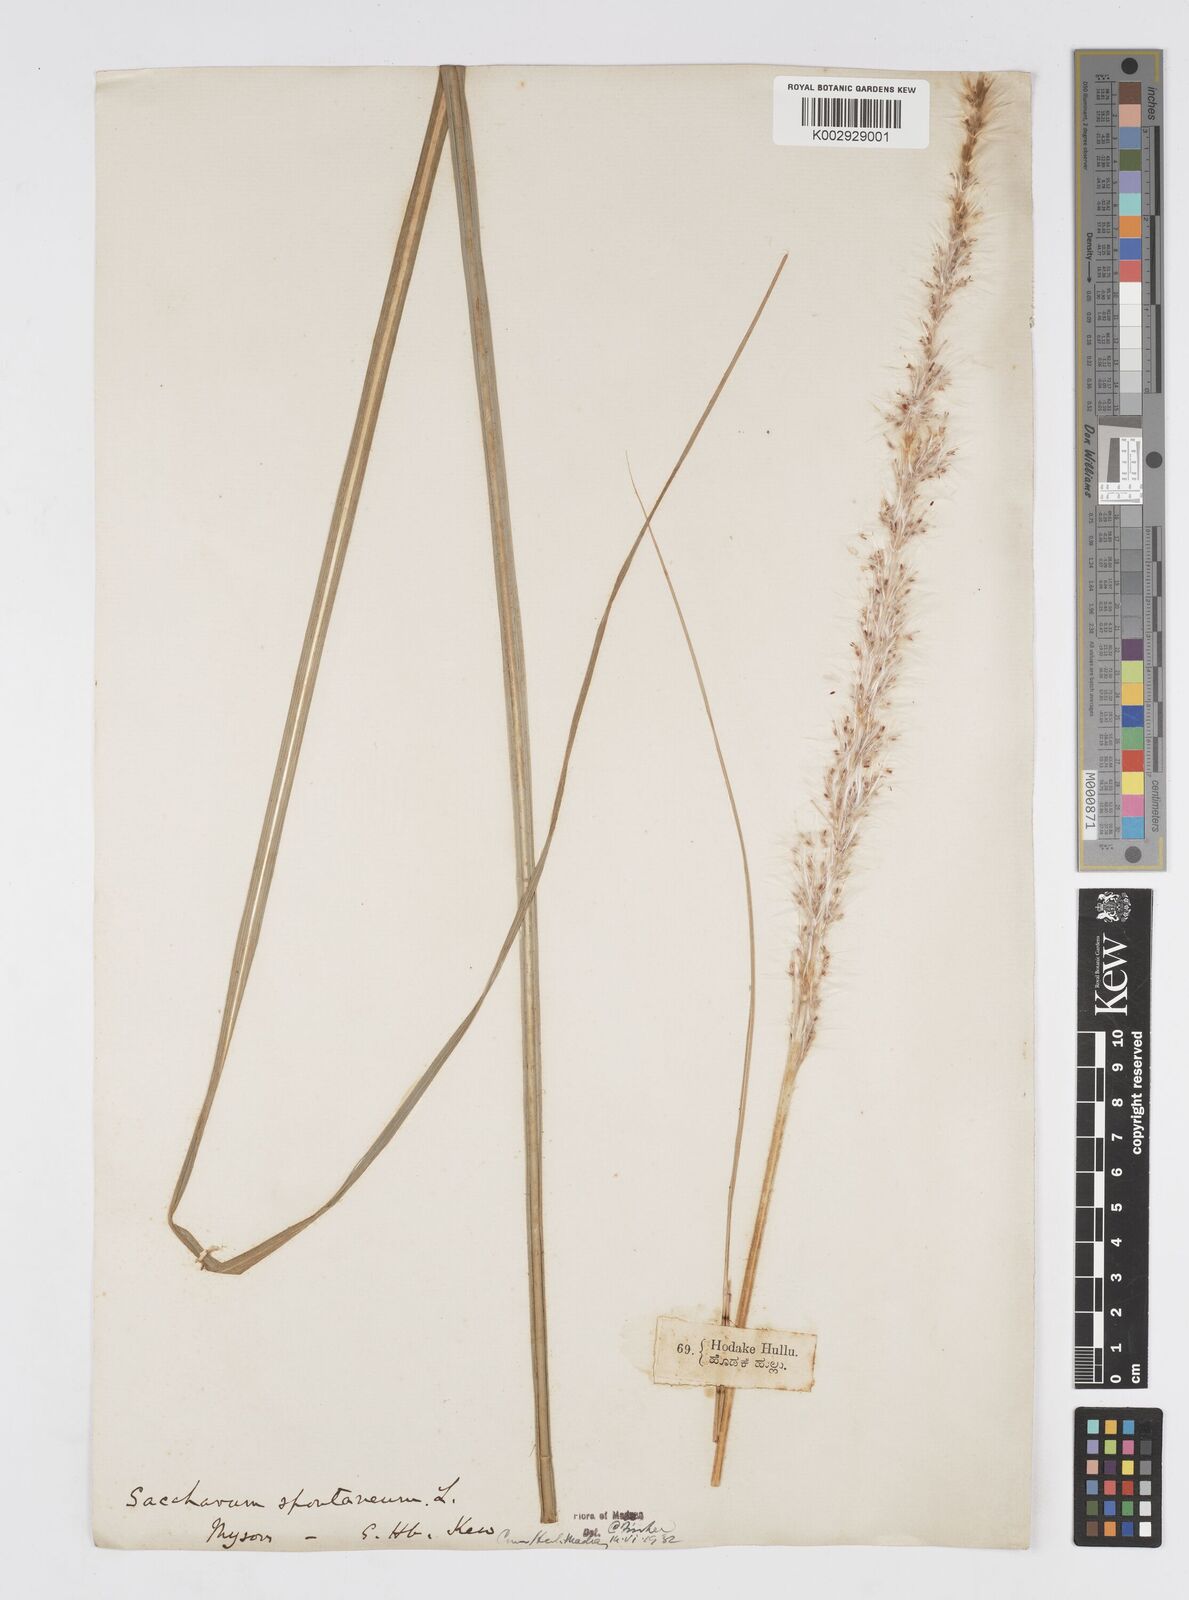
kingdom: Plantae
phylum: Tracheophyta
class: Liliopsida
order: Poales
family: Poaceae
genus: Saccharum
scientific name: Saccharum spontaneum
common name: Wild sugarcane
